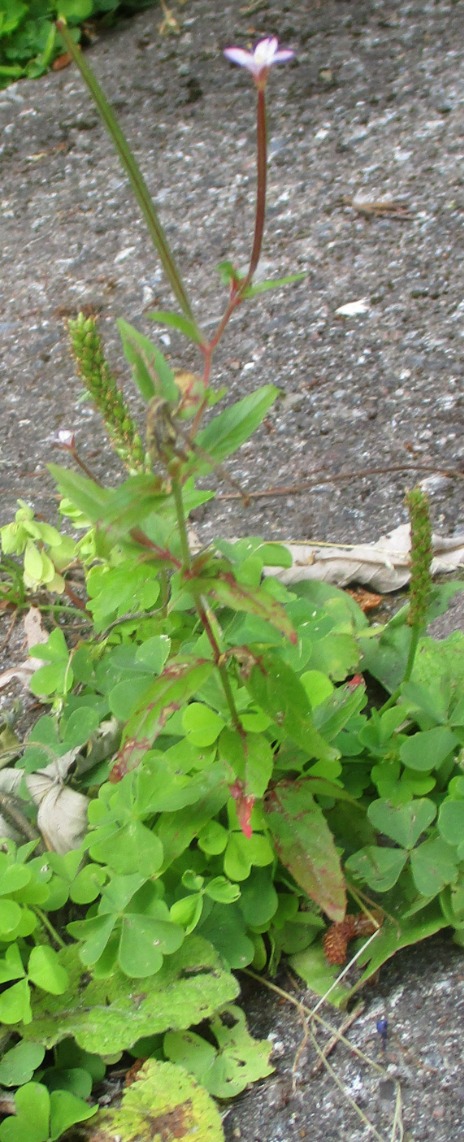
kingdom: Plantae
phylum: Tracheophyta
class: Magnoliopsida
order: Myrtales
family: Onagraceae
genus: Epilobium
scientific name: Epilobium
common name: Dueurtslægten
